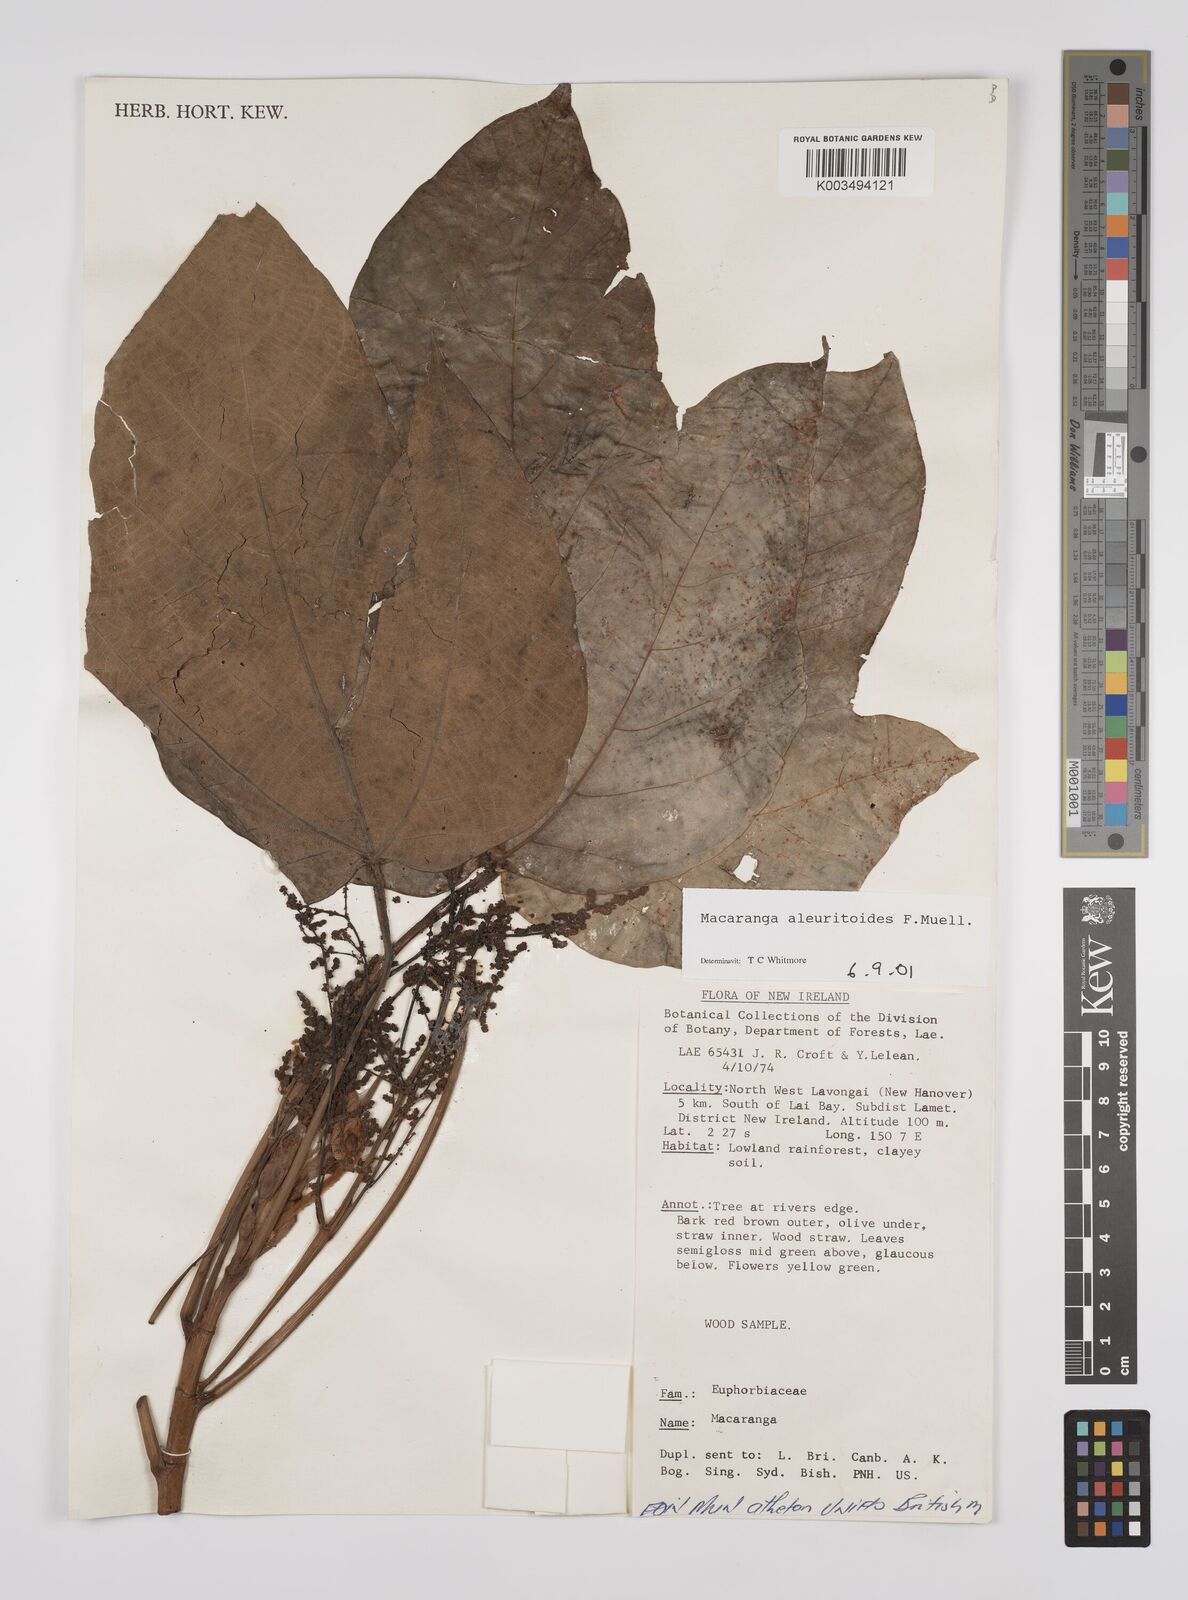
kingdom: Plantae
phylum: Tracheophyta
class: Magnoliopsida
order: Malpighiales
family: Euphorbiaceae
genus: Macaranga
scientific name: Macaranga aleuritoides
